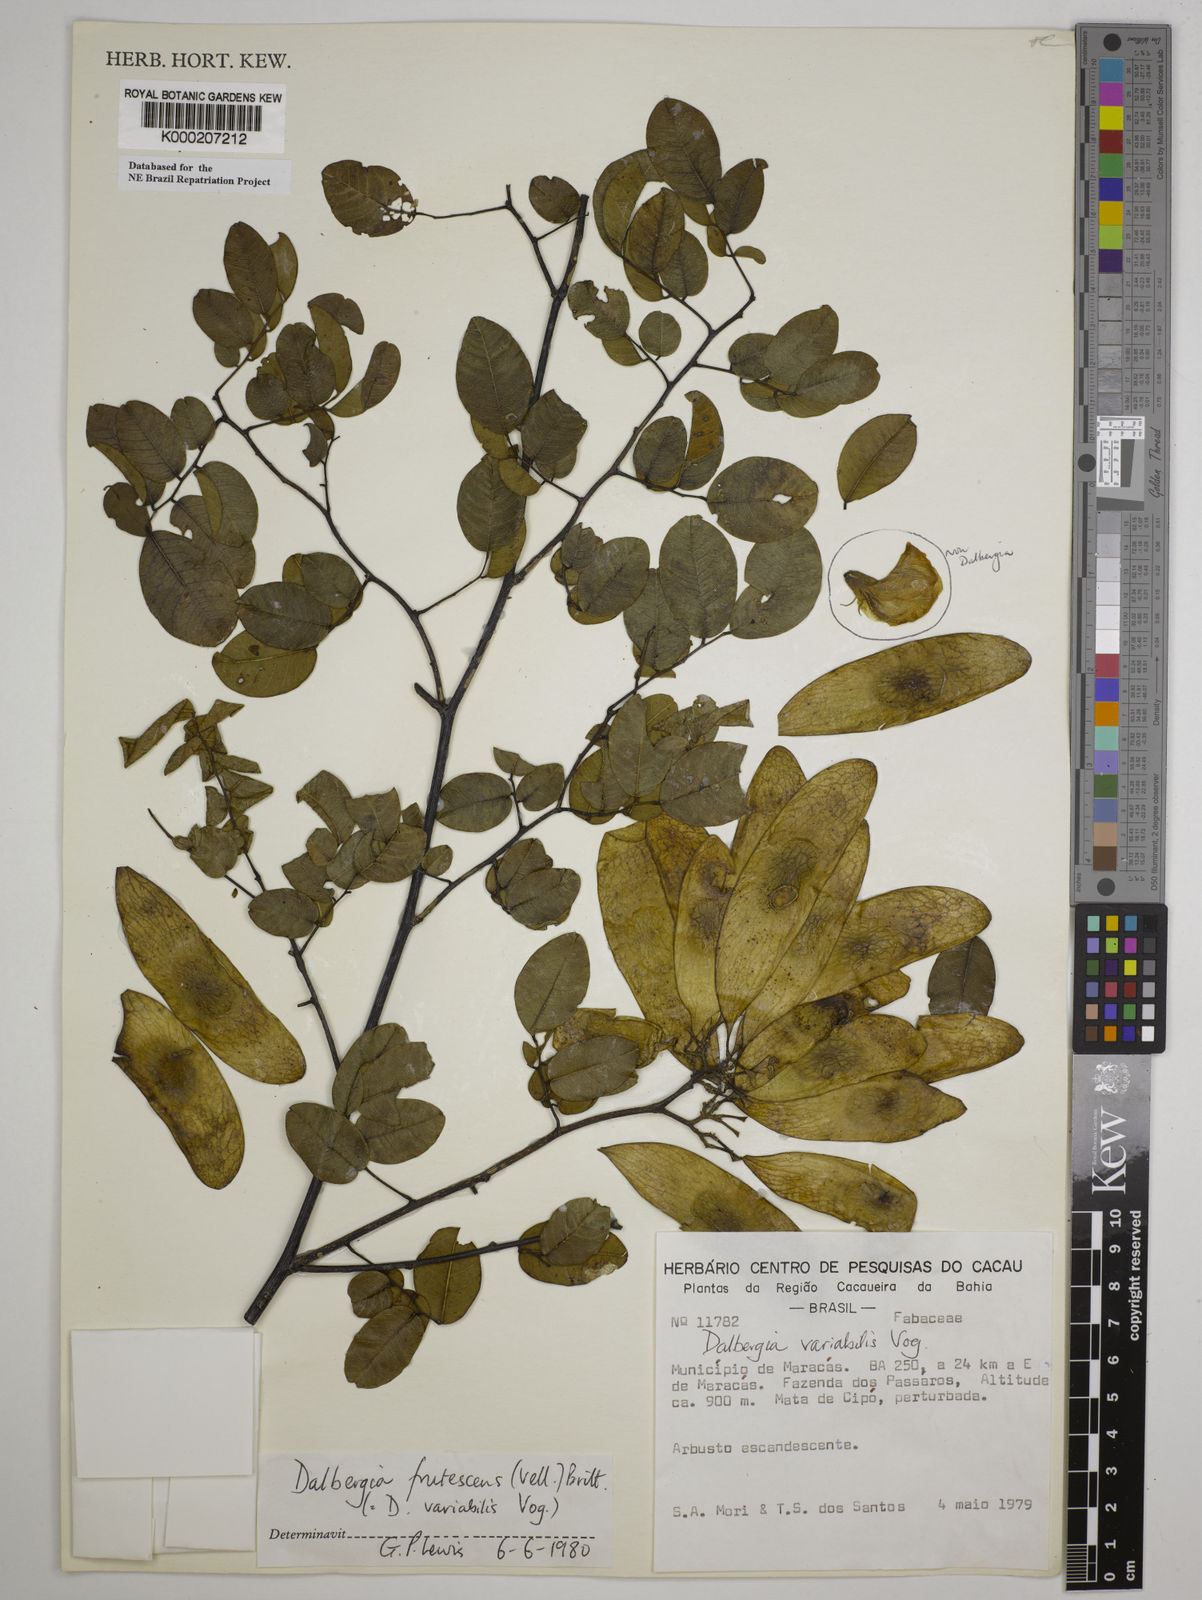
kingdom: Plantae
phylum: Tracheophyta
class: Magnoliopsida
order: Fabales
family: Fabaceae
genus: Dalbergia
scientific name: Dalbergia frutescens
